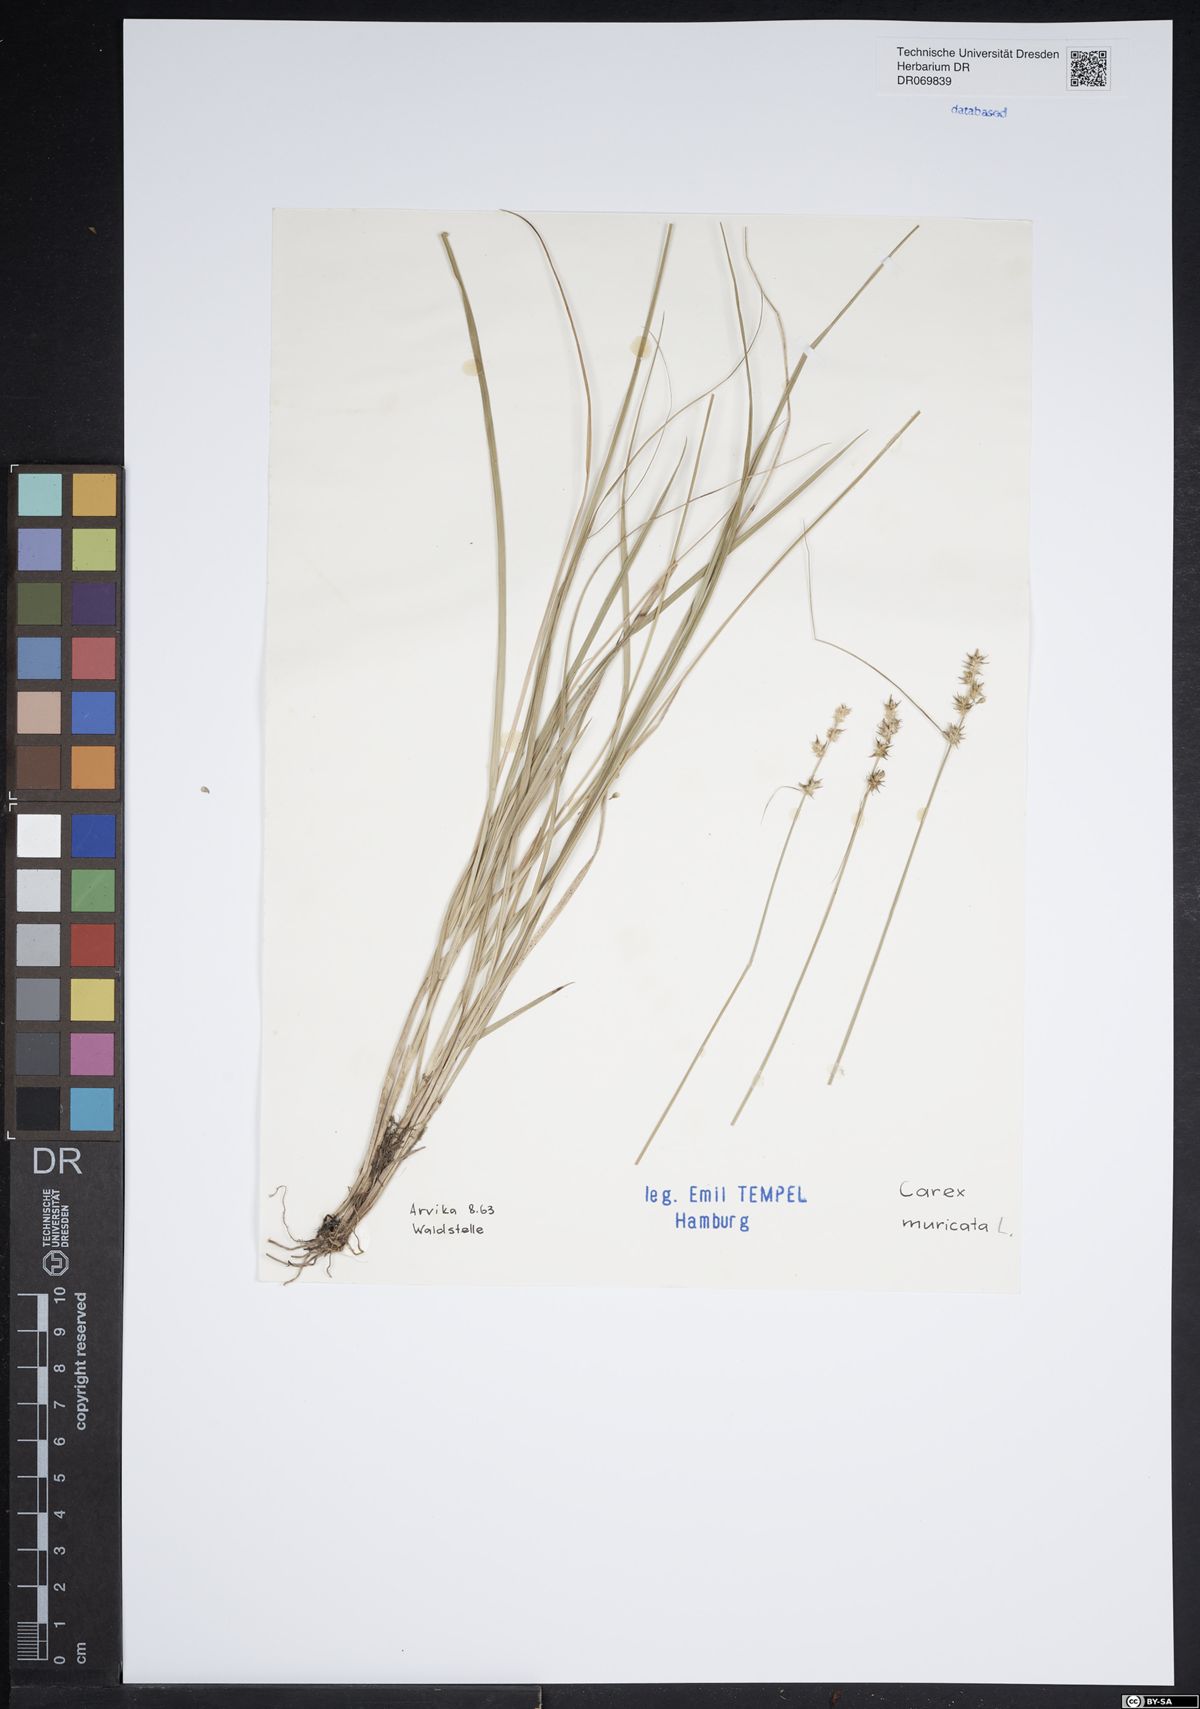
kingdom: Plantae
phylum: Tracheophyta
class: Liliopsida
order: Poales
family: Cyperaceae
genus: Carex
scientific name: Carex muricata
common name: Rough sedge
